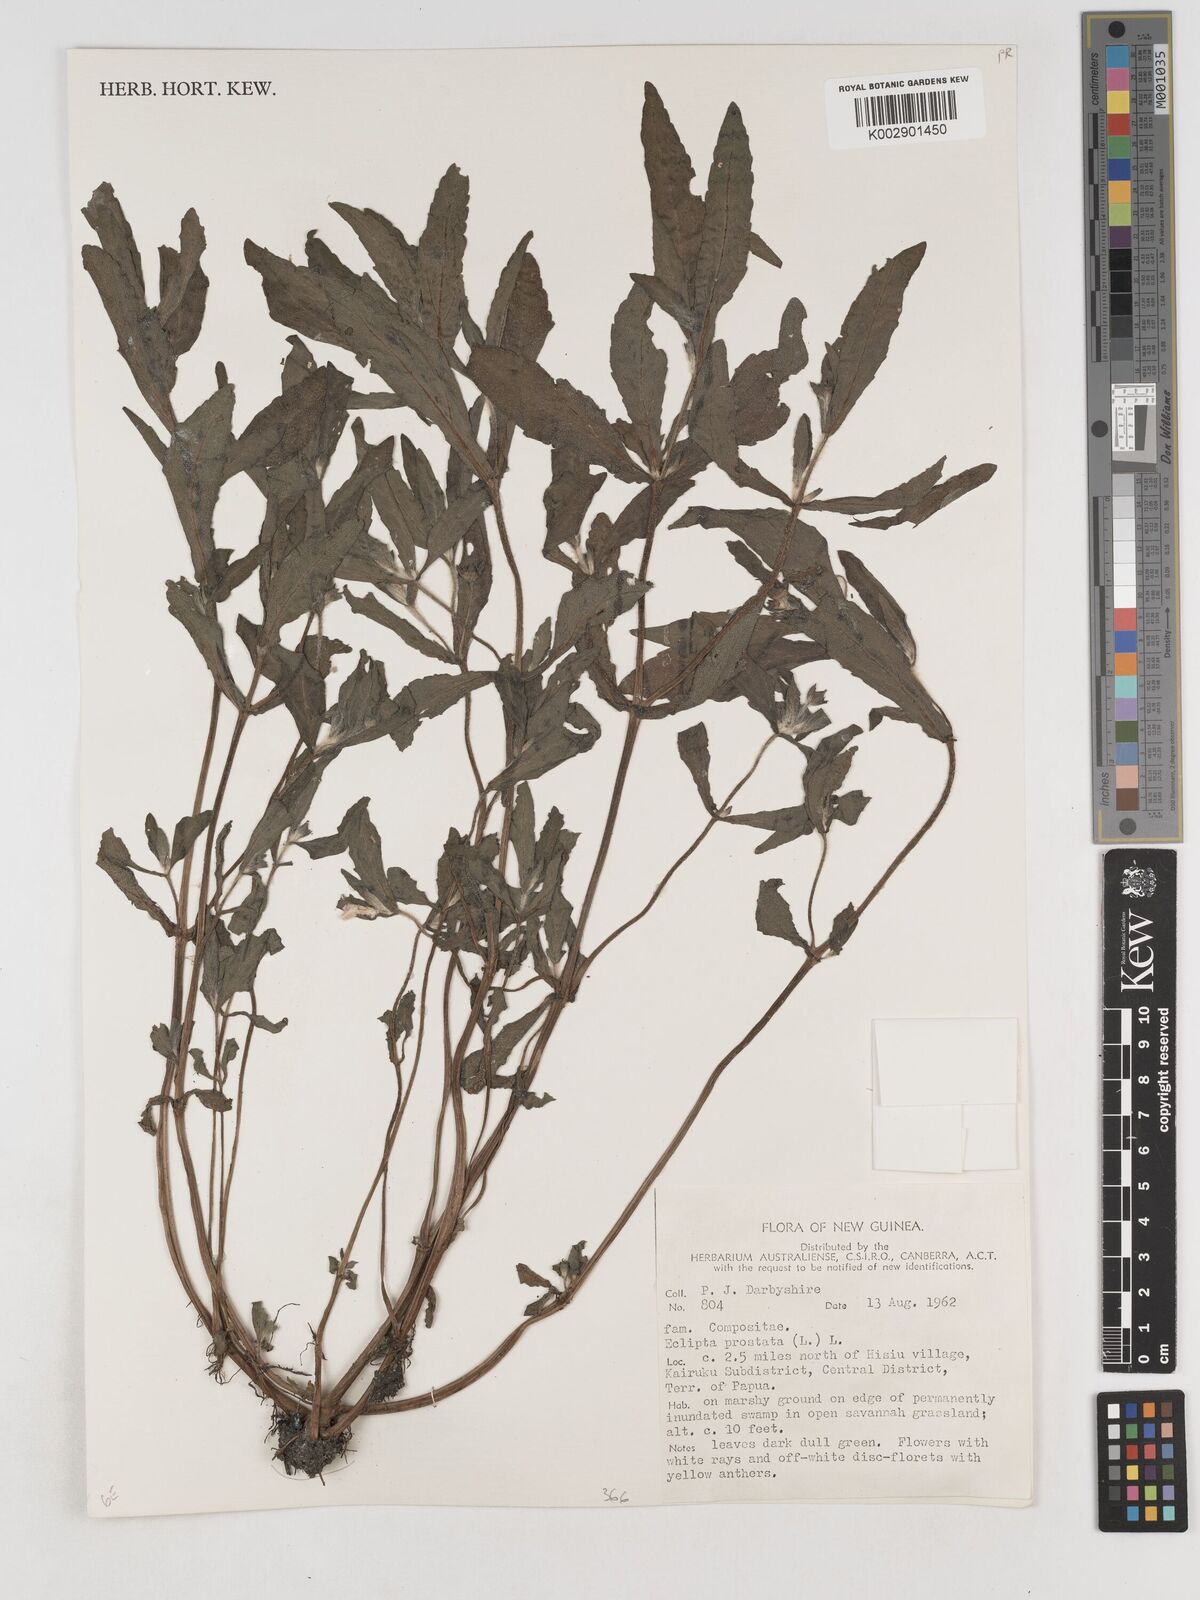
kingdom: Plantae
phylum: Tracheophyta
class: Magnoliopsida
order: Asterales
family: Asteraceae
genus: Eclipta
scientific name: Eclipta prostrata
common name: False daisy
